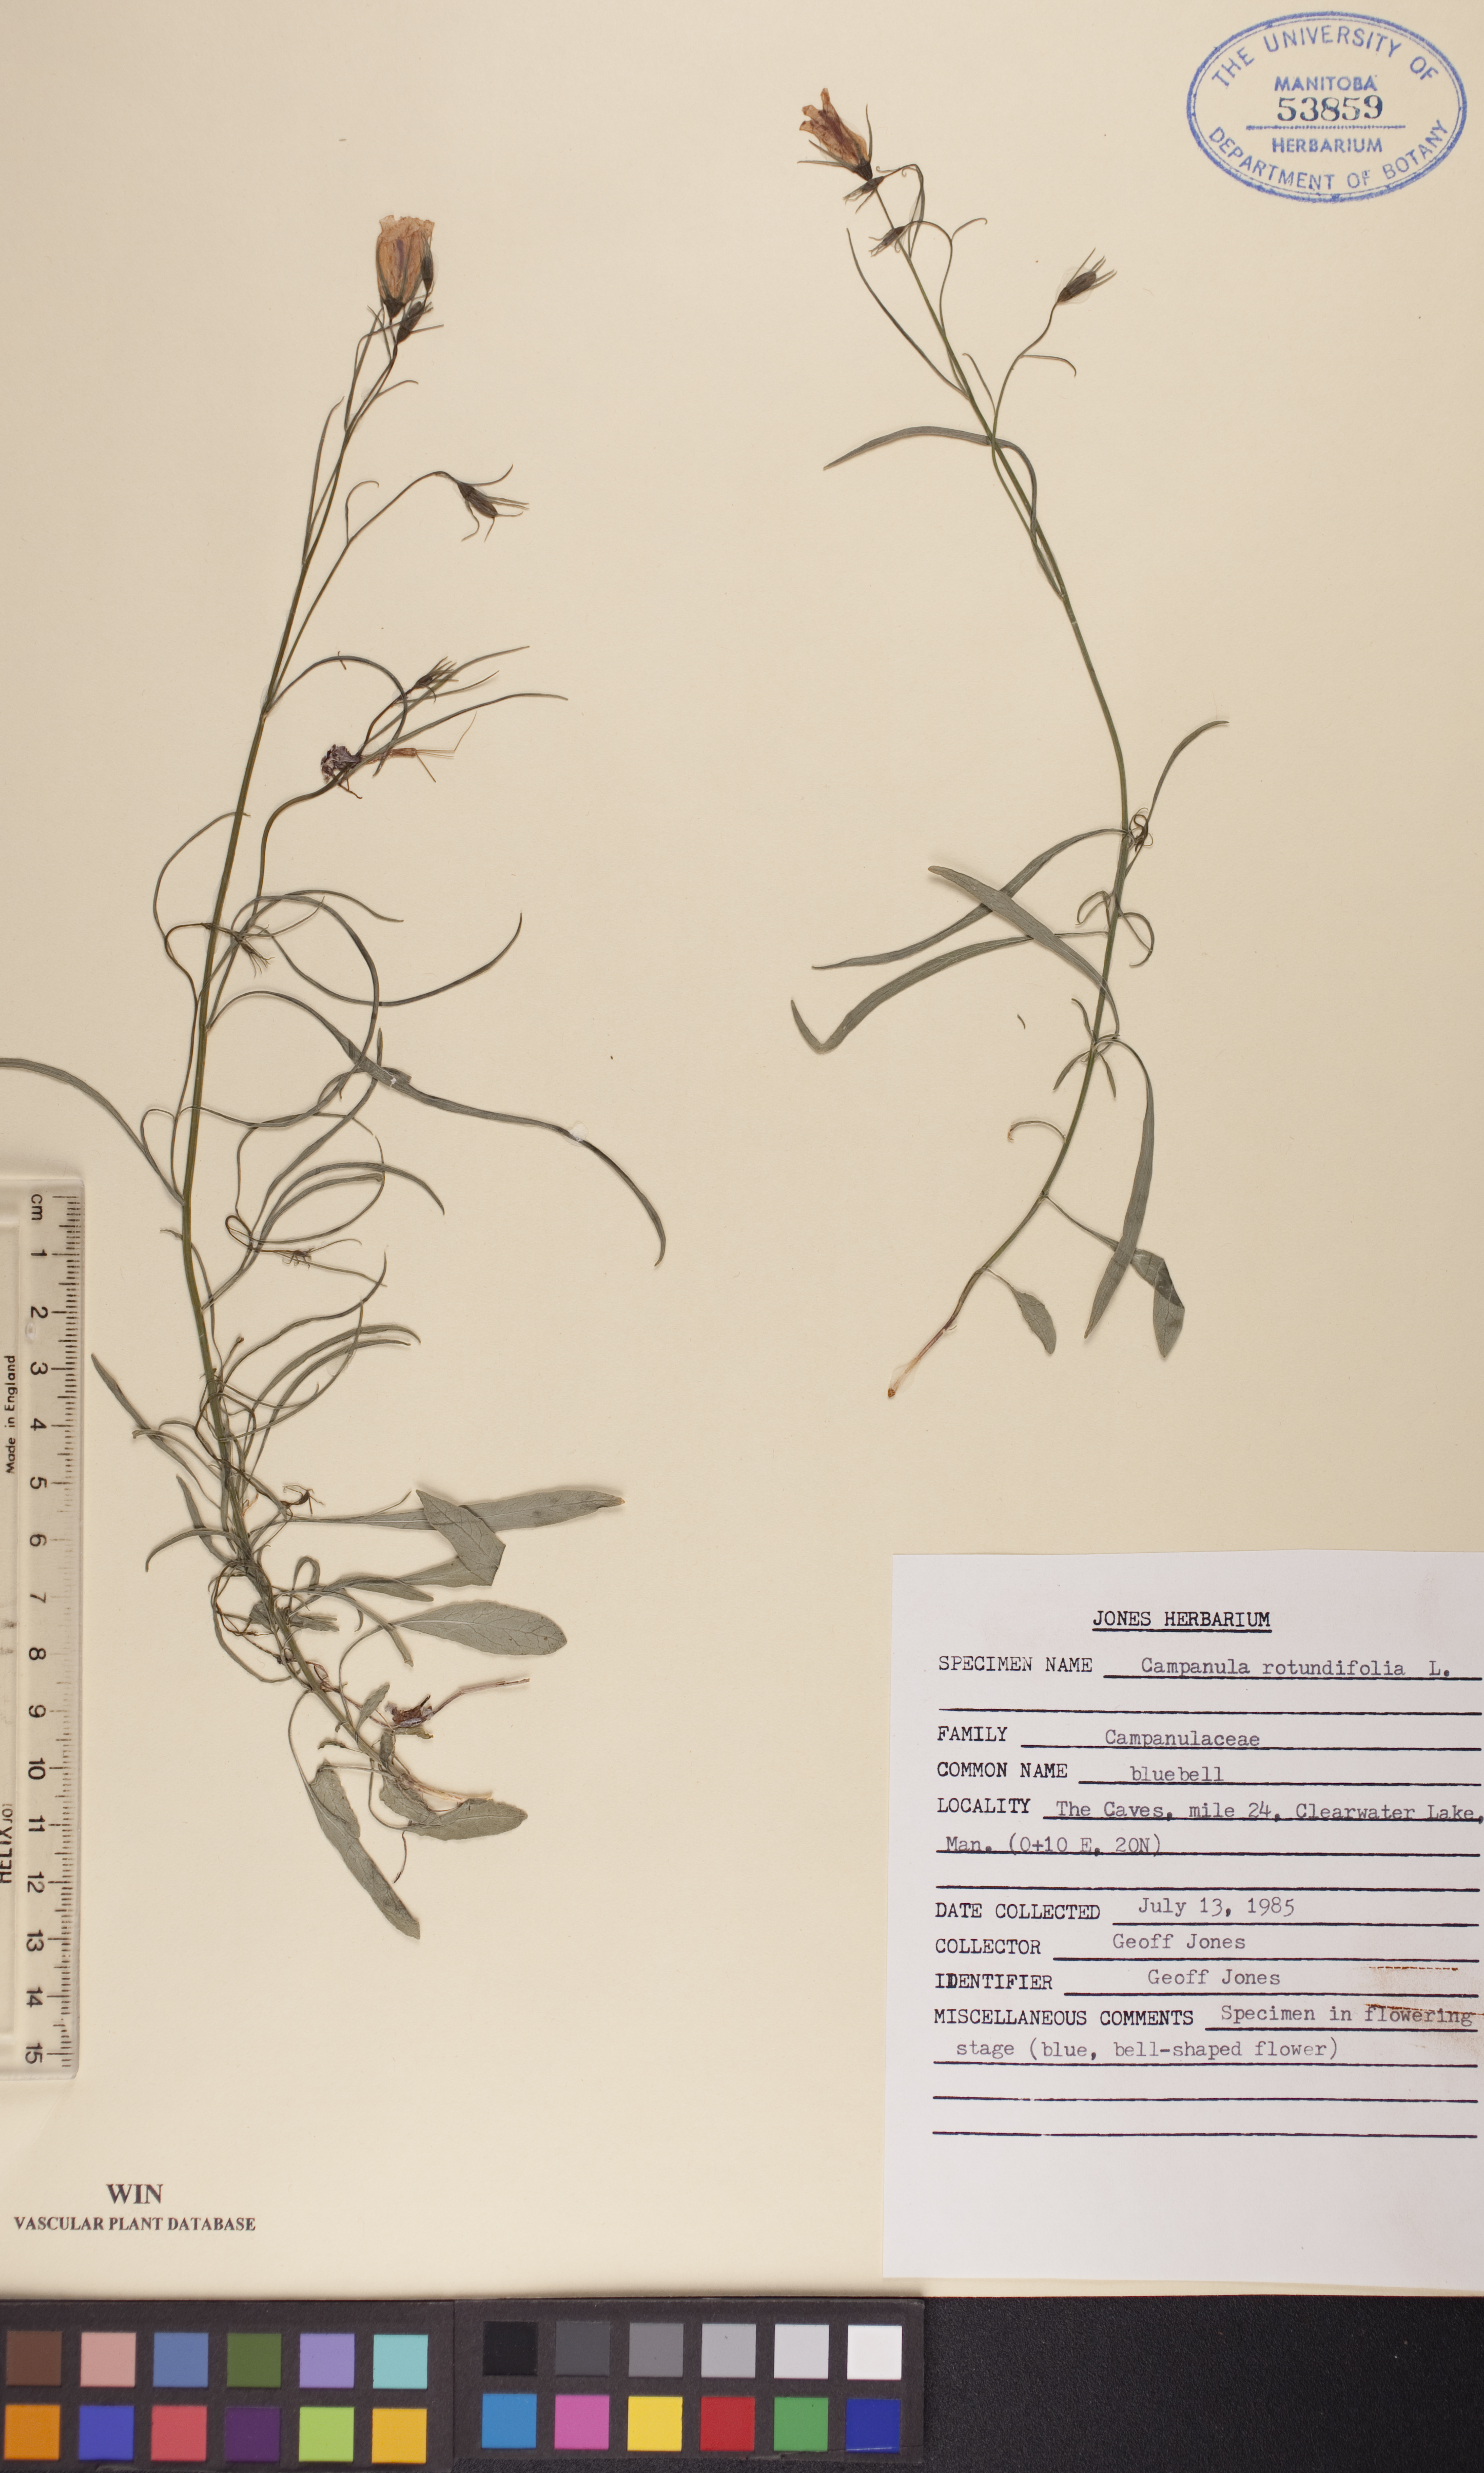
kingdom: Plantae
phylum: Tracheophyta
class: Magnoliopsida
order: Asterales
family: Campanulaceae
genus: Campanula
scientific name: Campanula rotundifolia
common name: Harebell
